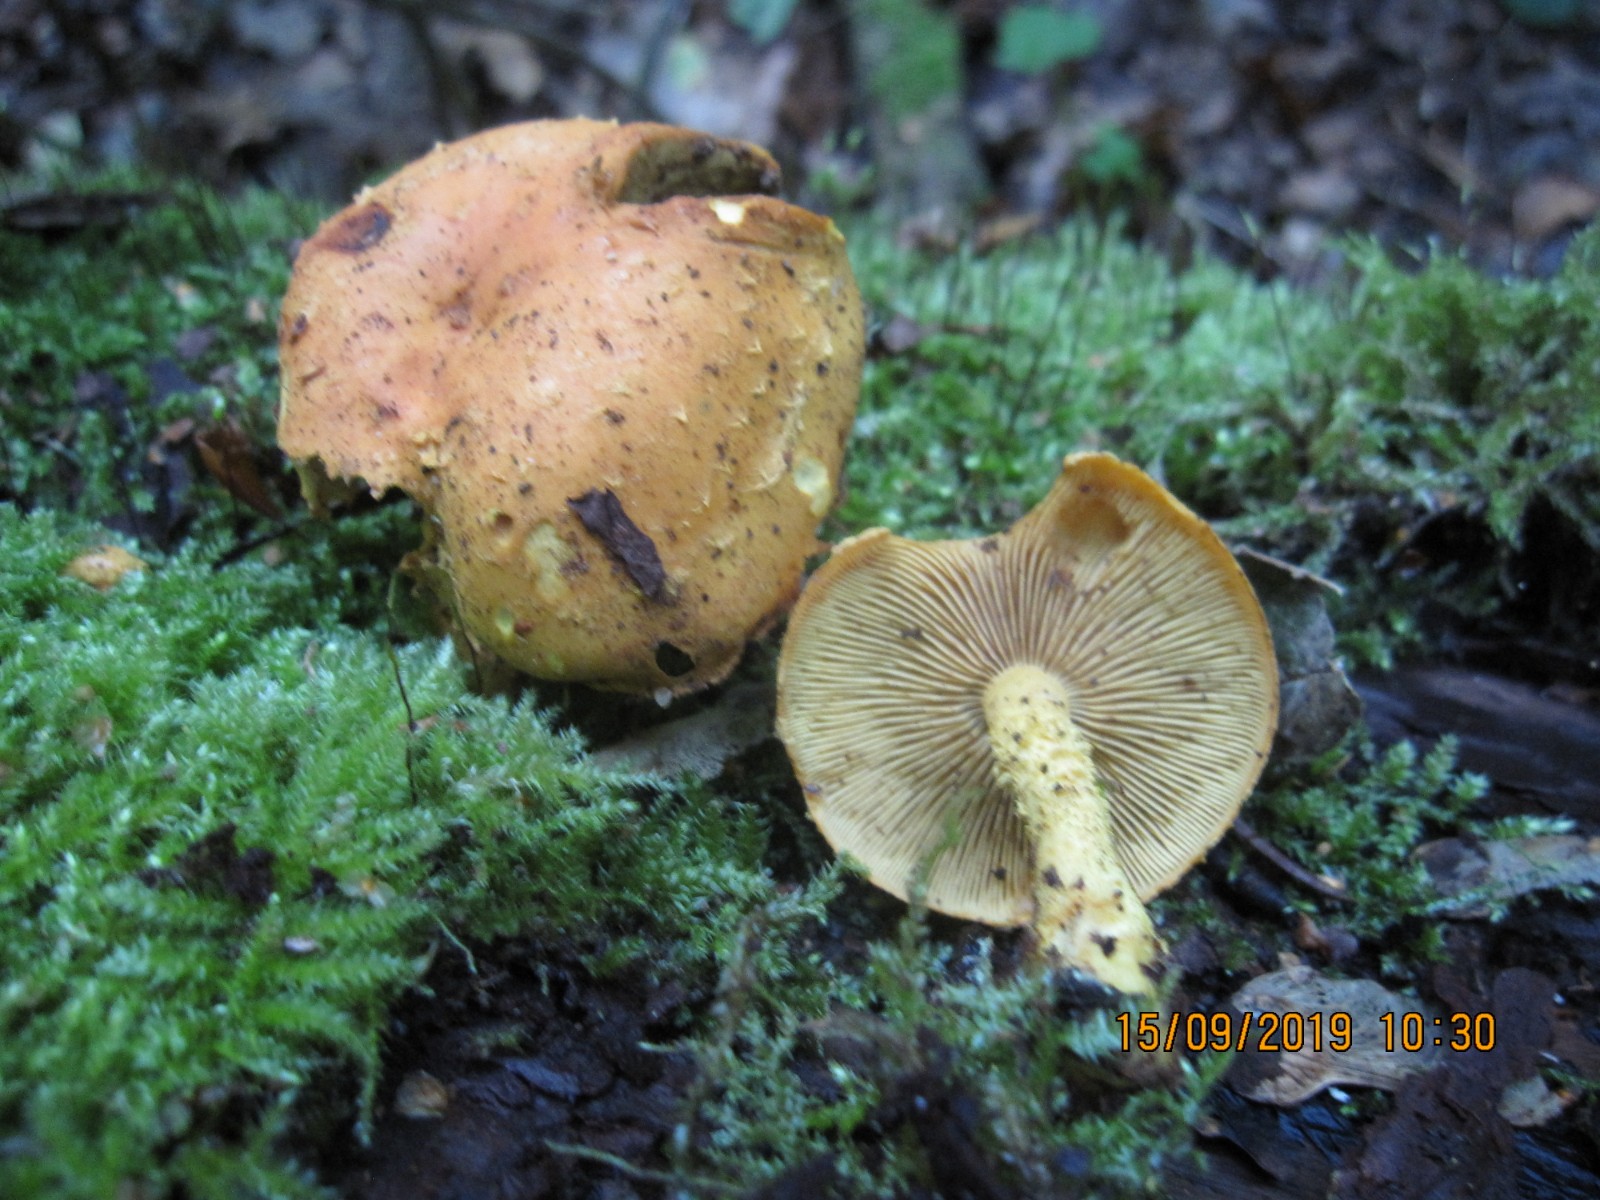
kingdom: Fungi
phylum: Basidiomycota
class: Agaricomycetes
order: Agaricales
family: Strophariaceae
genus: Pholiota
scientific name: Pholiota flammans
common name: flamme-skælhat
